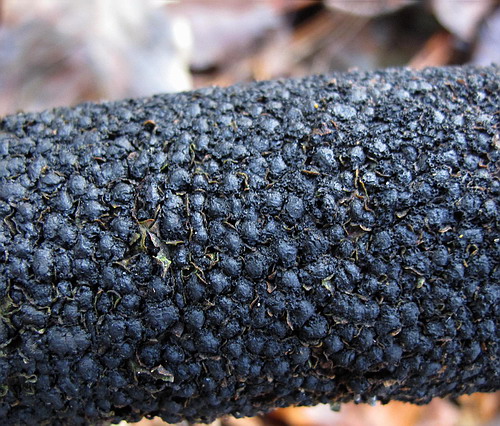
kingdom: Fungi
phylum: Ascomycota
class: Sordariomycetes
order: Xylariales
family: Melogrammataceae
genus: Melogramma
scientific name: Melogramma spiniferum
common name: bøgefod-kulhals
